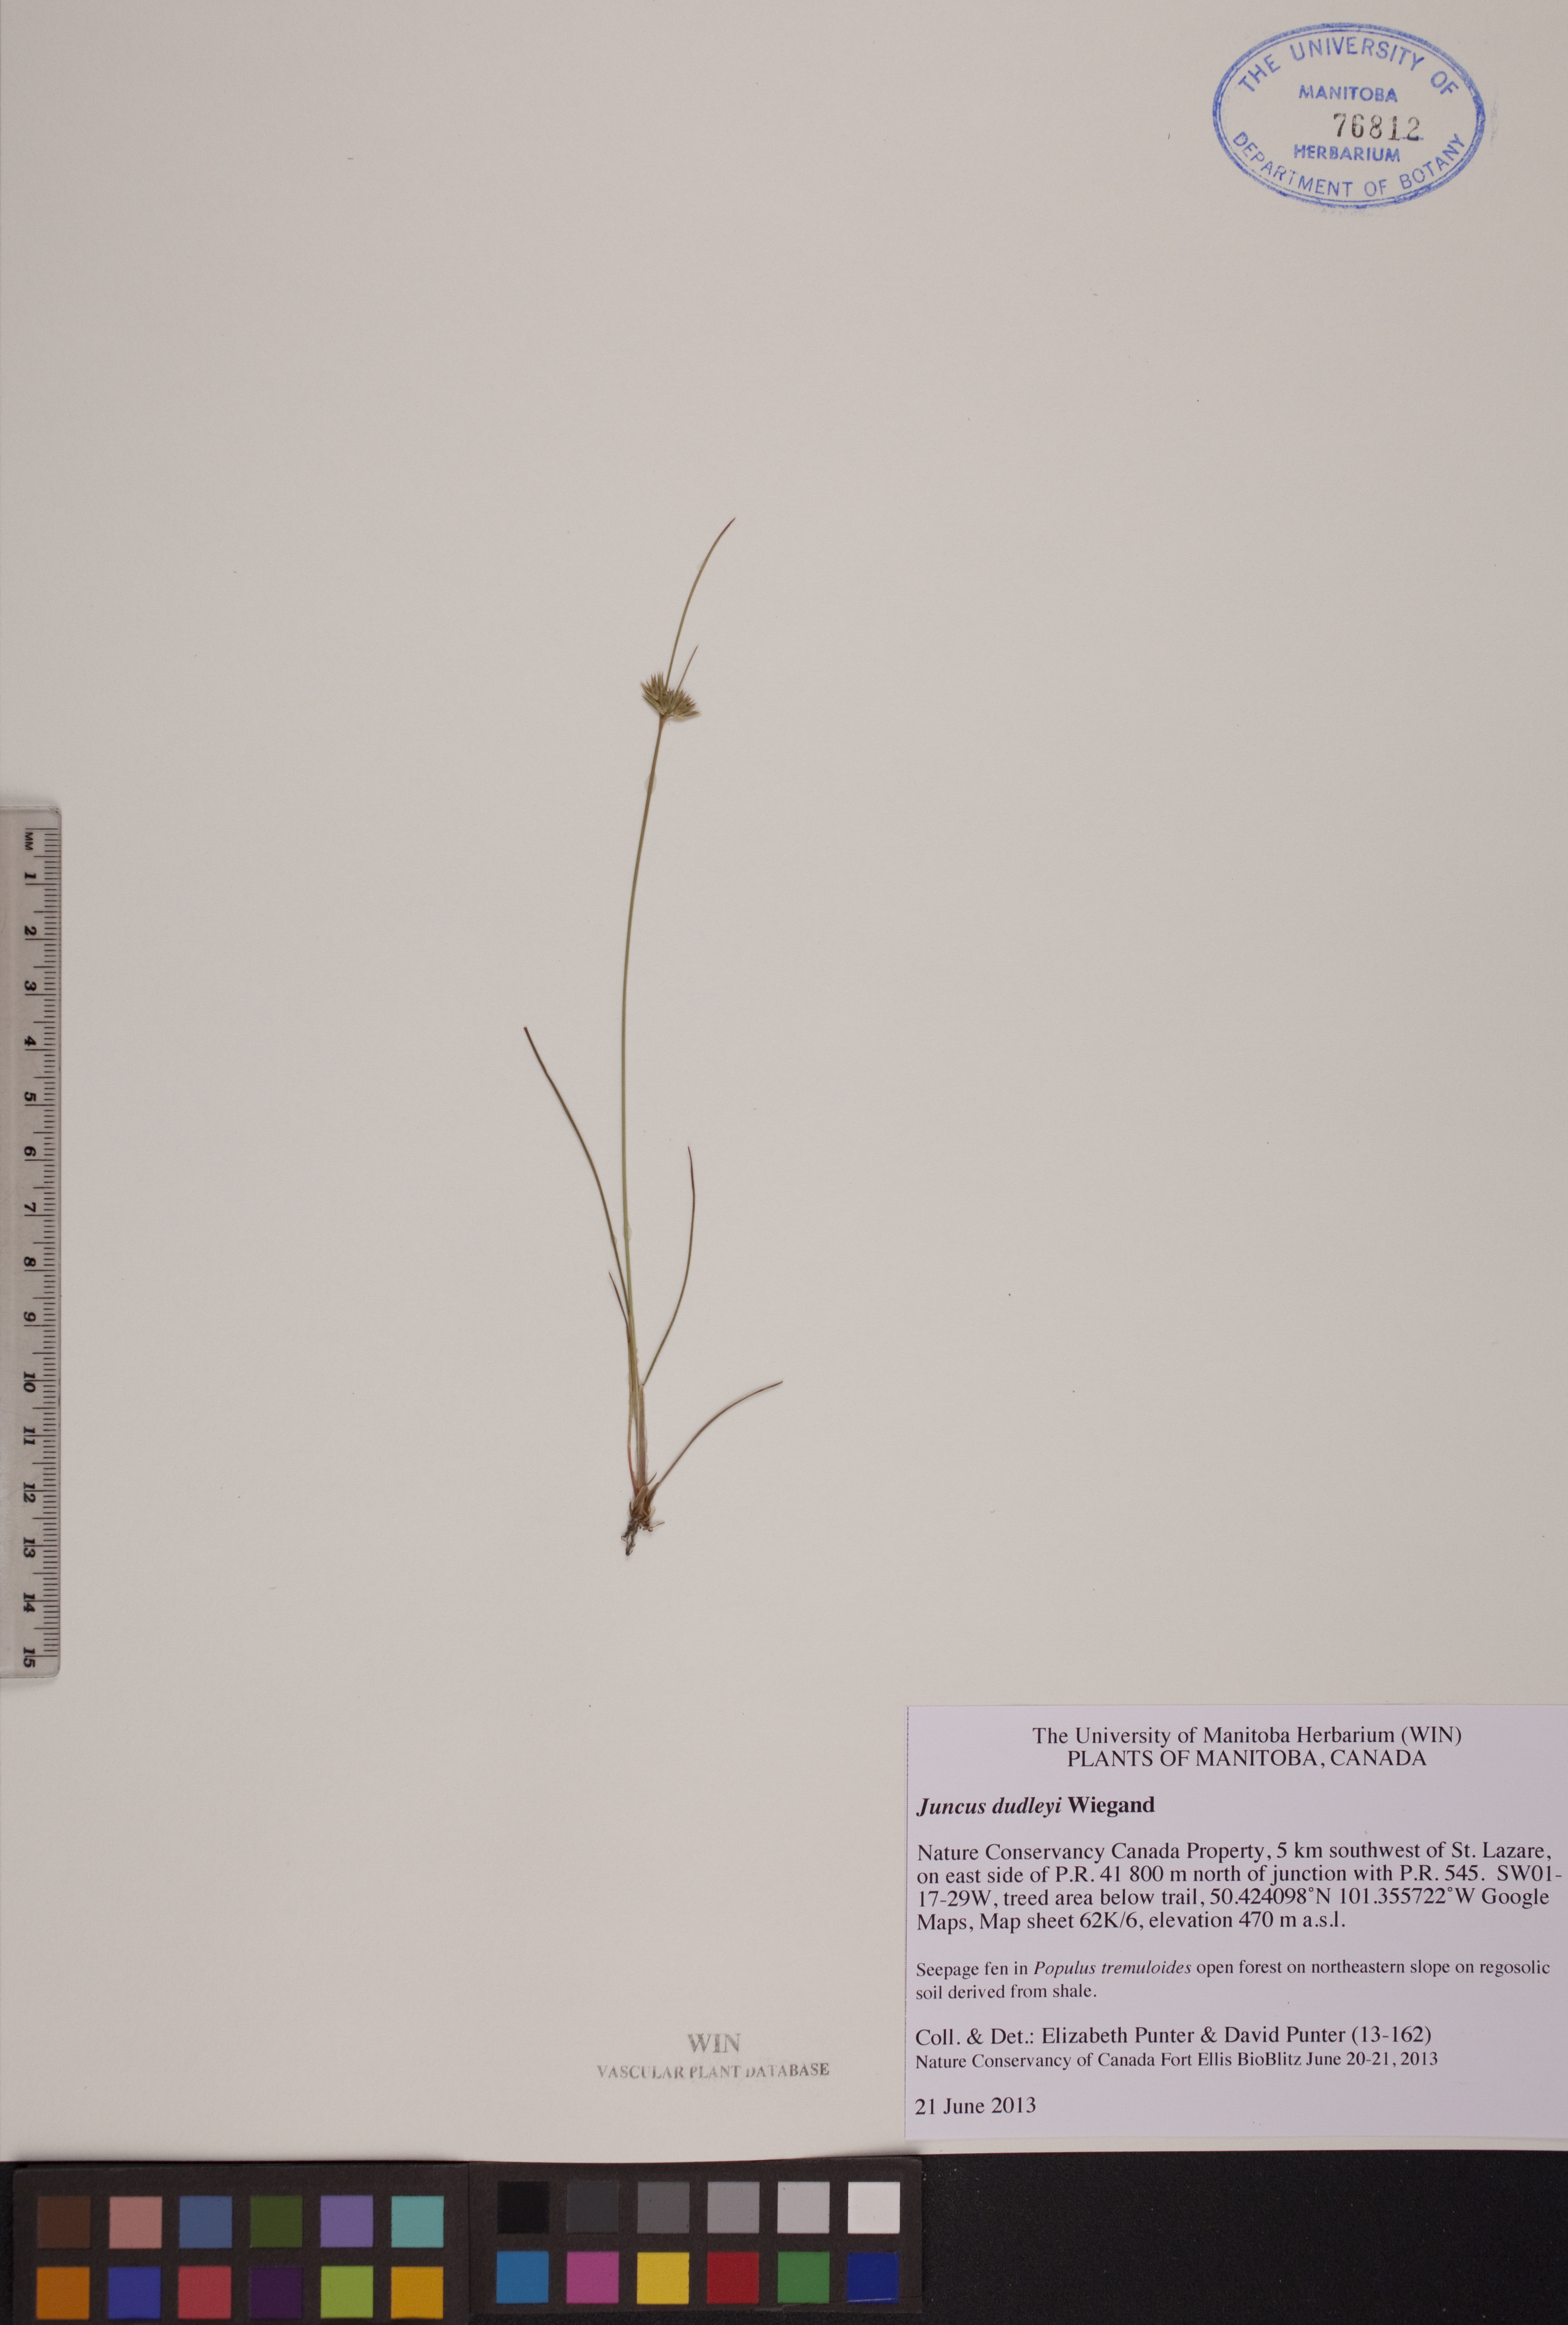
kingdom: Plantae
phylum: Tracheophyta
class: Liliopsida
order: Poales
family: Juncaceae
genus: Juncus
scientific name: Juncus dudleyi
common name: Dudley's rush
